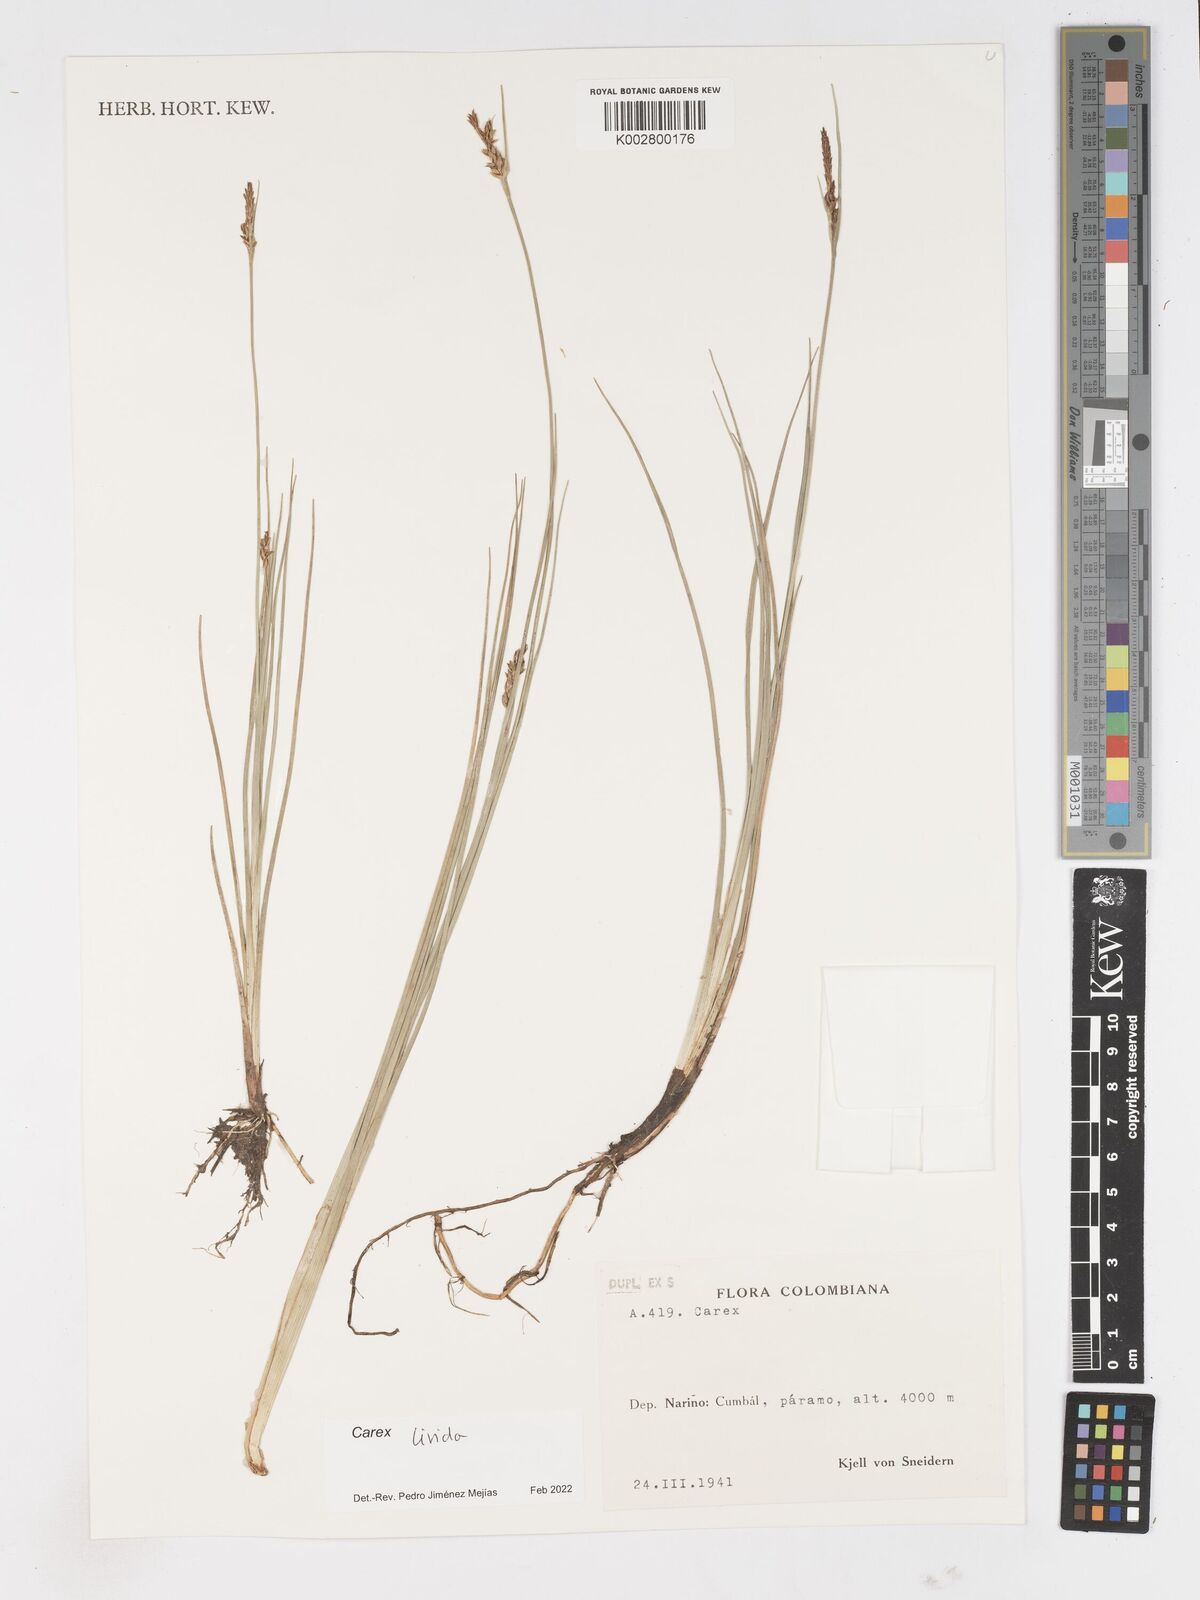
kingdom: Plantae
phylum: Tracheophyta
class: Liliopsida
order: Poales
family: Cyperaceae
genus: Carex
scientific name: Carex livida
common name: Livid sedge
